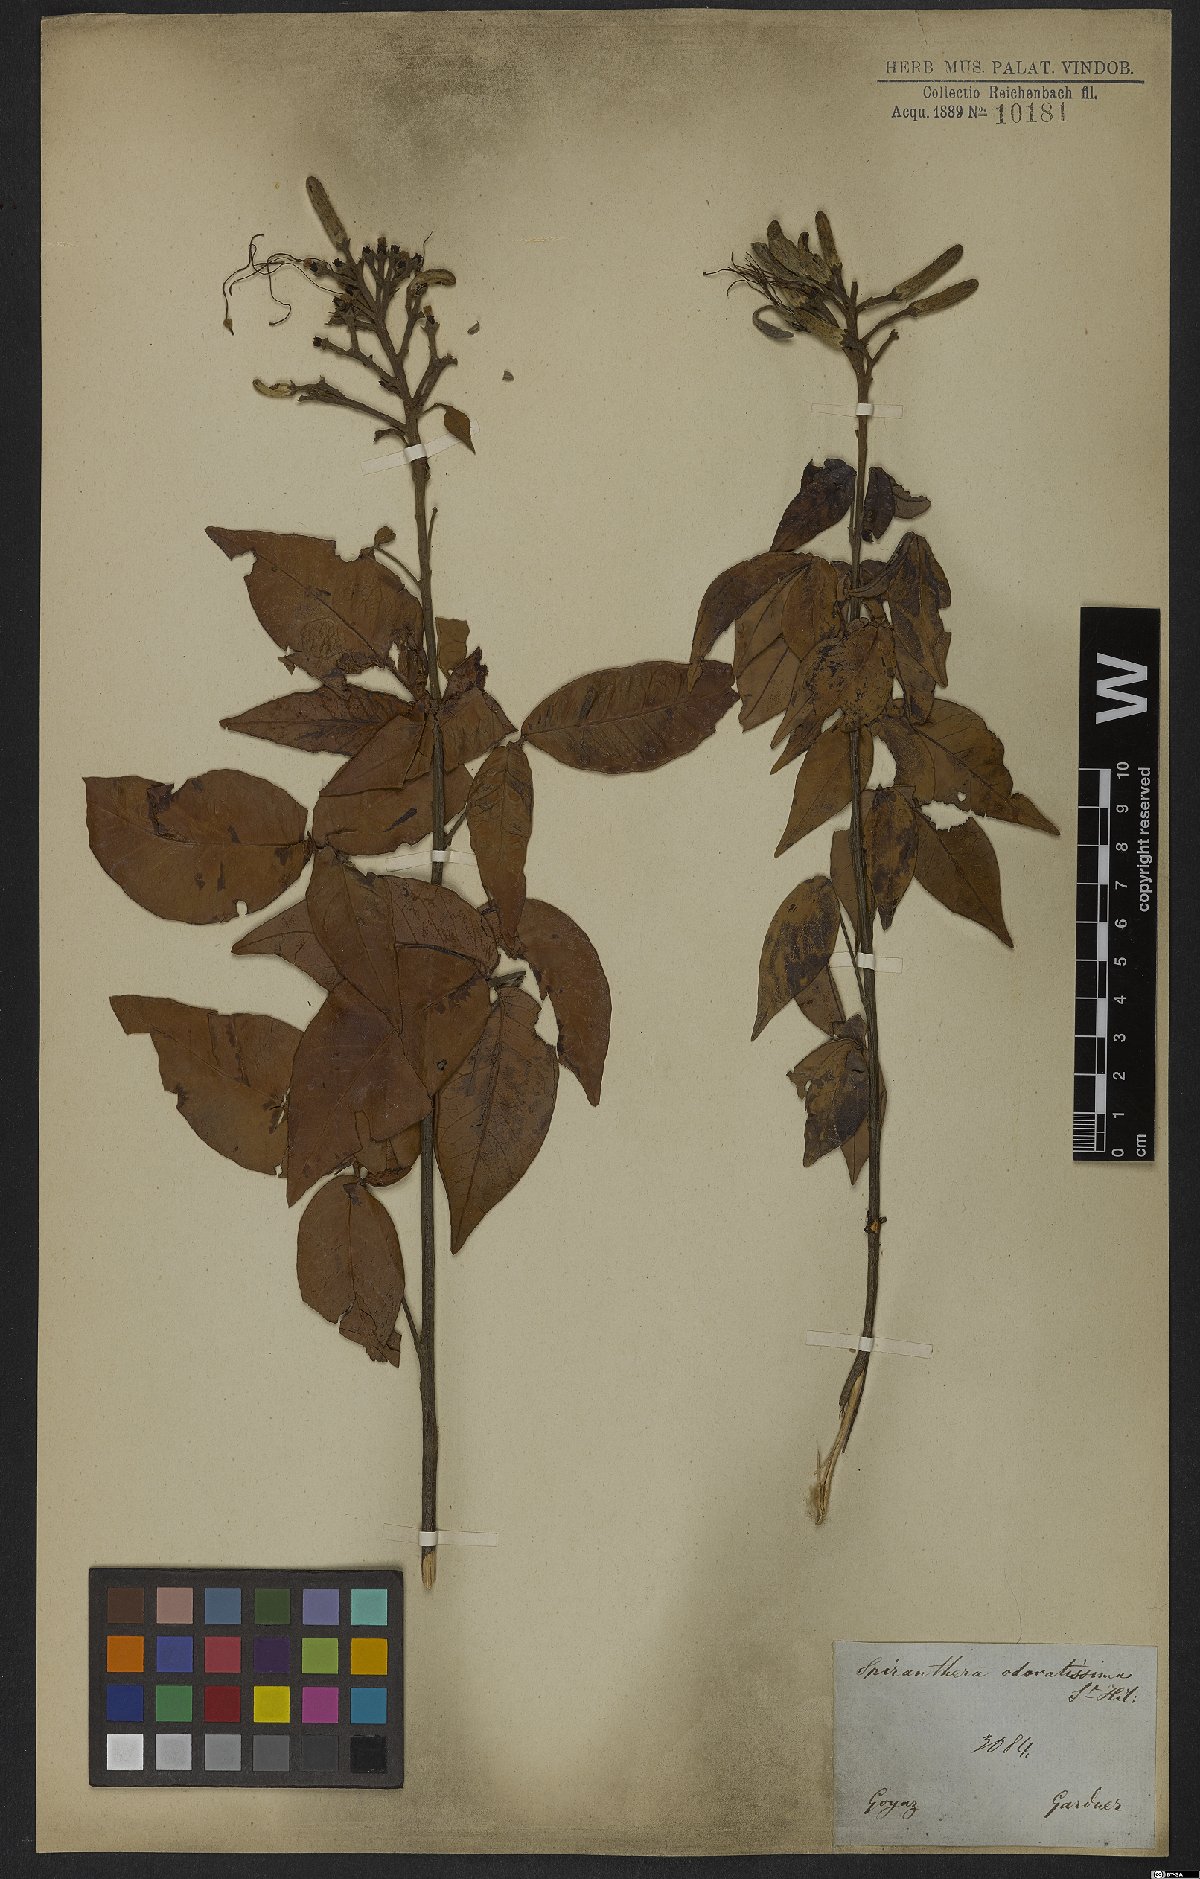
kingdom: Plantae
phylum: Tracheophyta
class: Magnoliopsida
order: Sapindales
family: Rutaceae
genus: Spiranthera
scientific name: Spiranthera odoratissima
